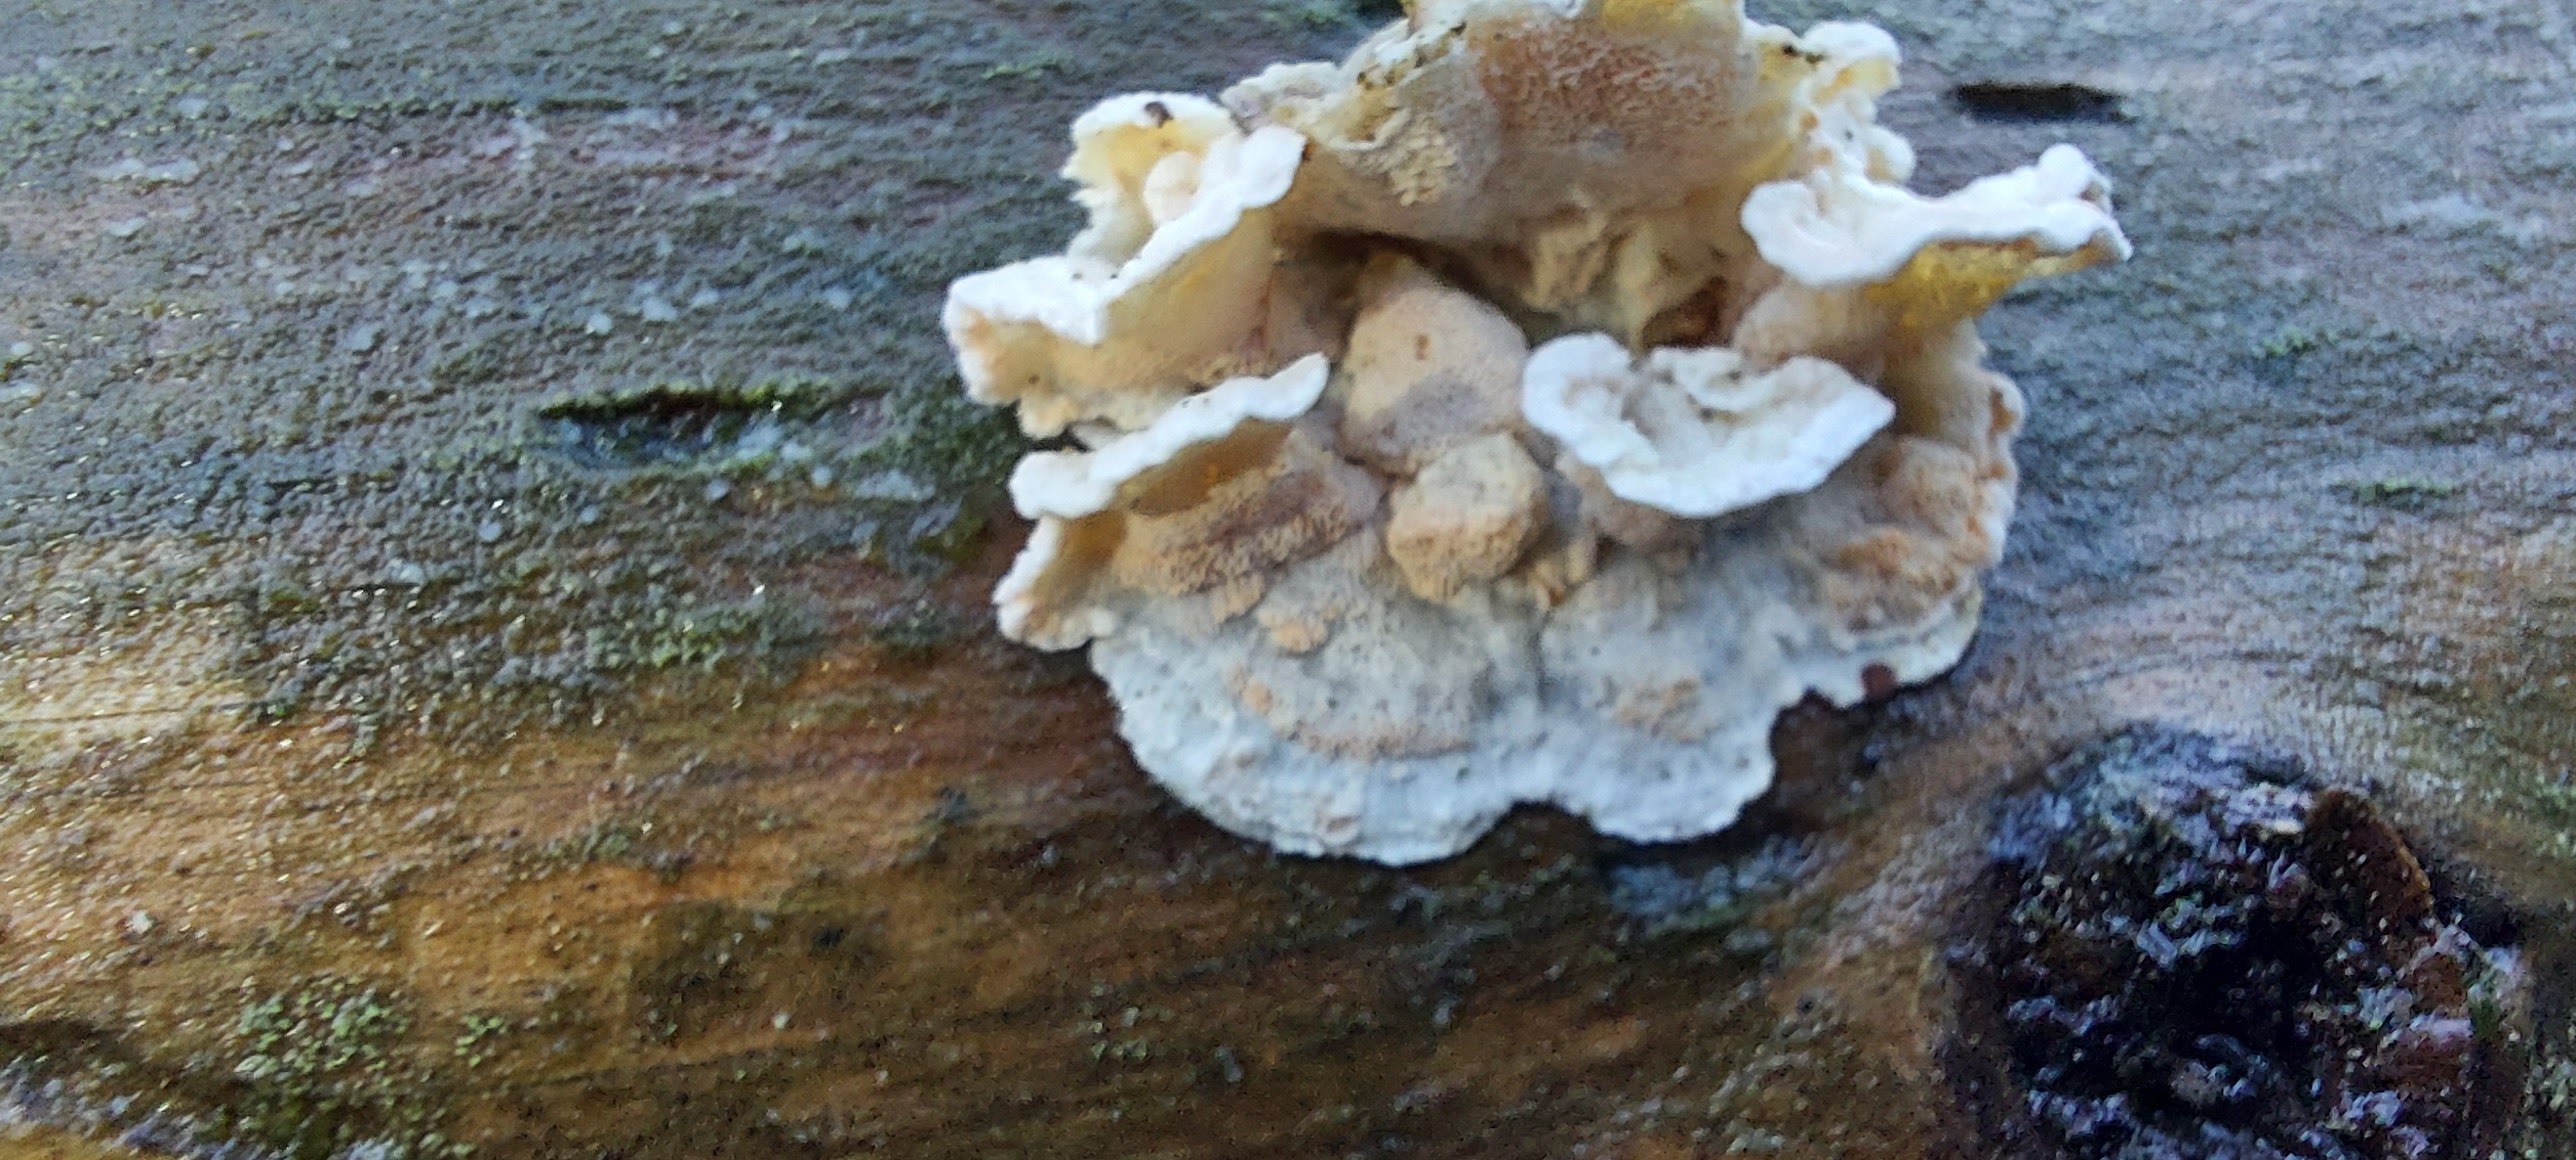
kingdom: Fungi
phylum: Basidiomycota
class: Agaricomycetes
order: Polyporales
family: Incrustoporiaceae
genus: Skeletocutis
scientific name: Skeletocutis amorpha
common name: orange krystalporesvamp
